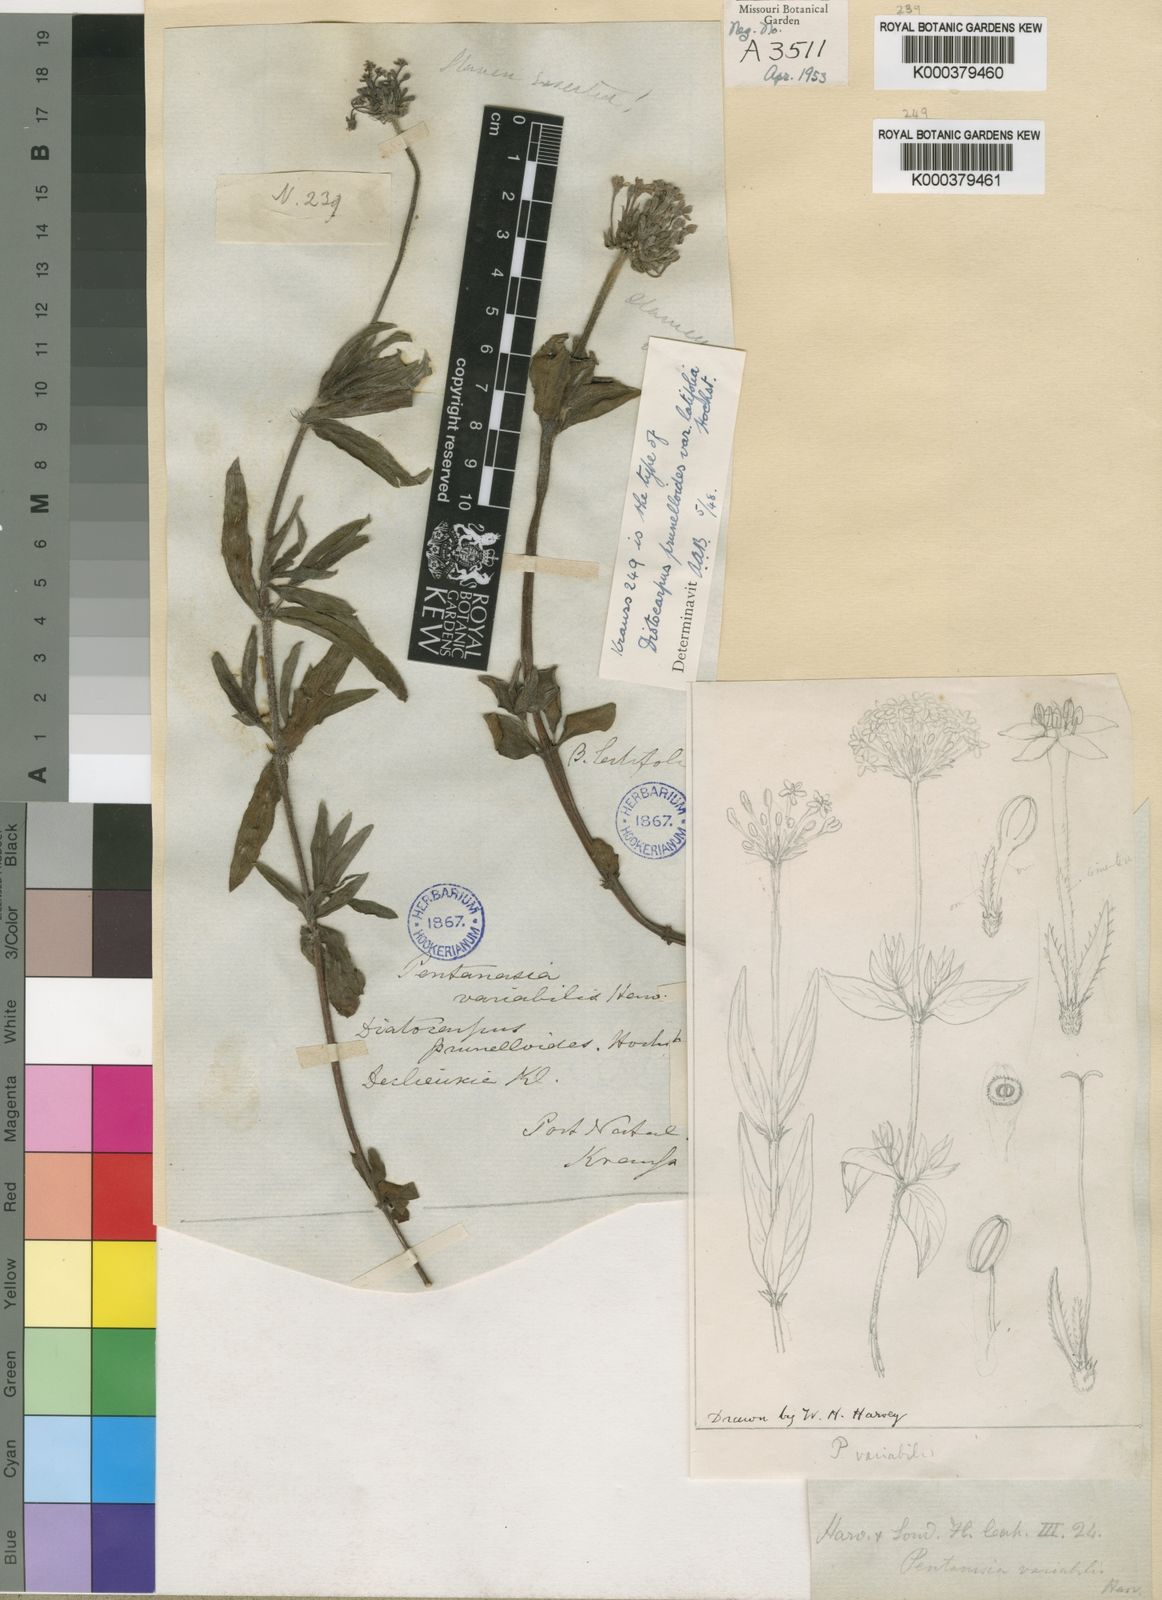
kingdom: Plantae
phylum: Tracheophyta
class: Magnoliopsida
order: Gentianales
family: Rubiaceae
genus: Pentanisia
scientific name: Pentanisia prunelloides
